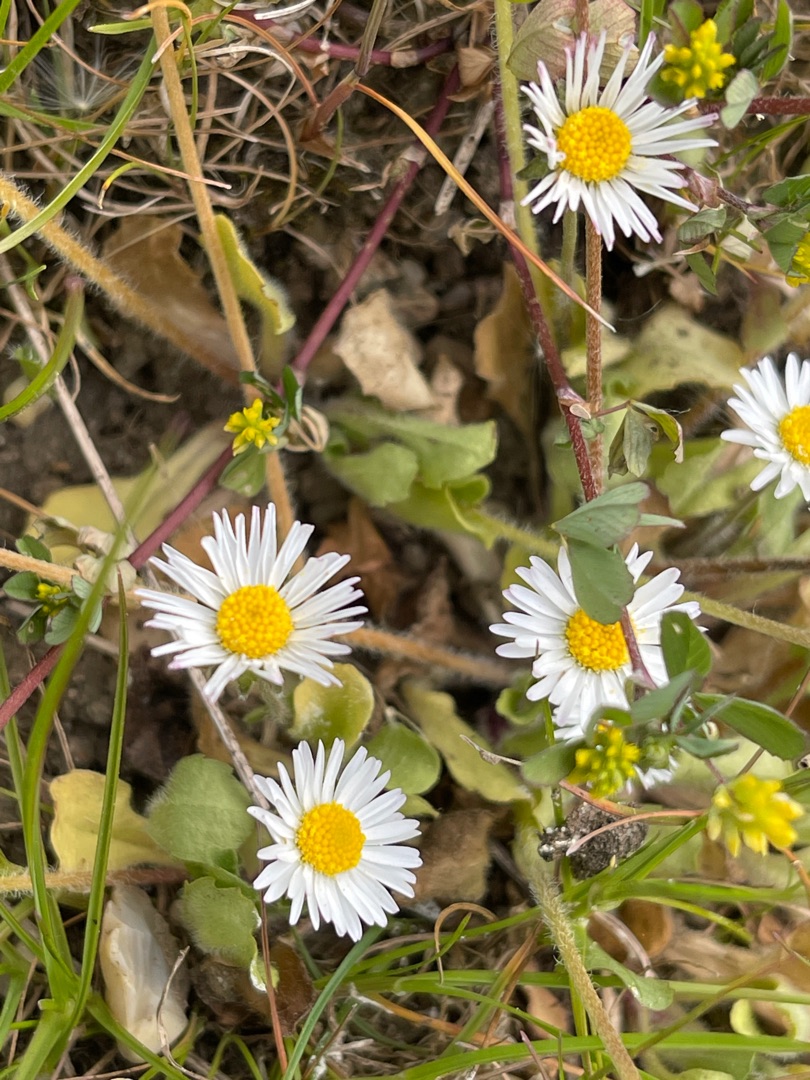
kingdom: Plantae
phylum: Tracheophyta
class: Magnoliopsida
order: Asterales
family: Asteraceae
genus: Bellis
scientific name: Bellis perennis
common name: Tusindfryd
